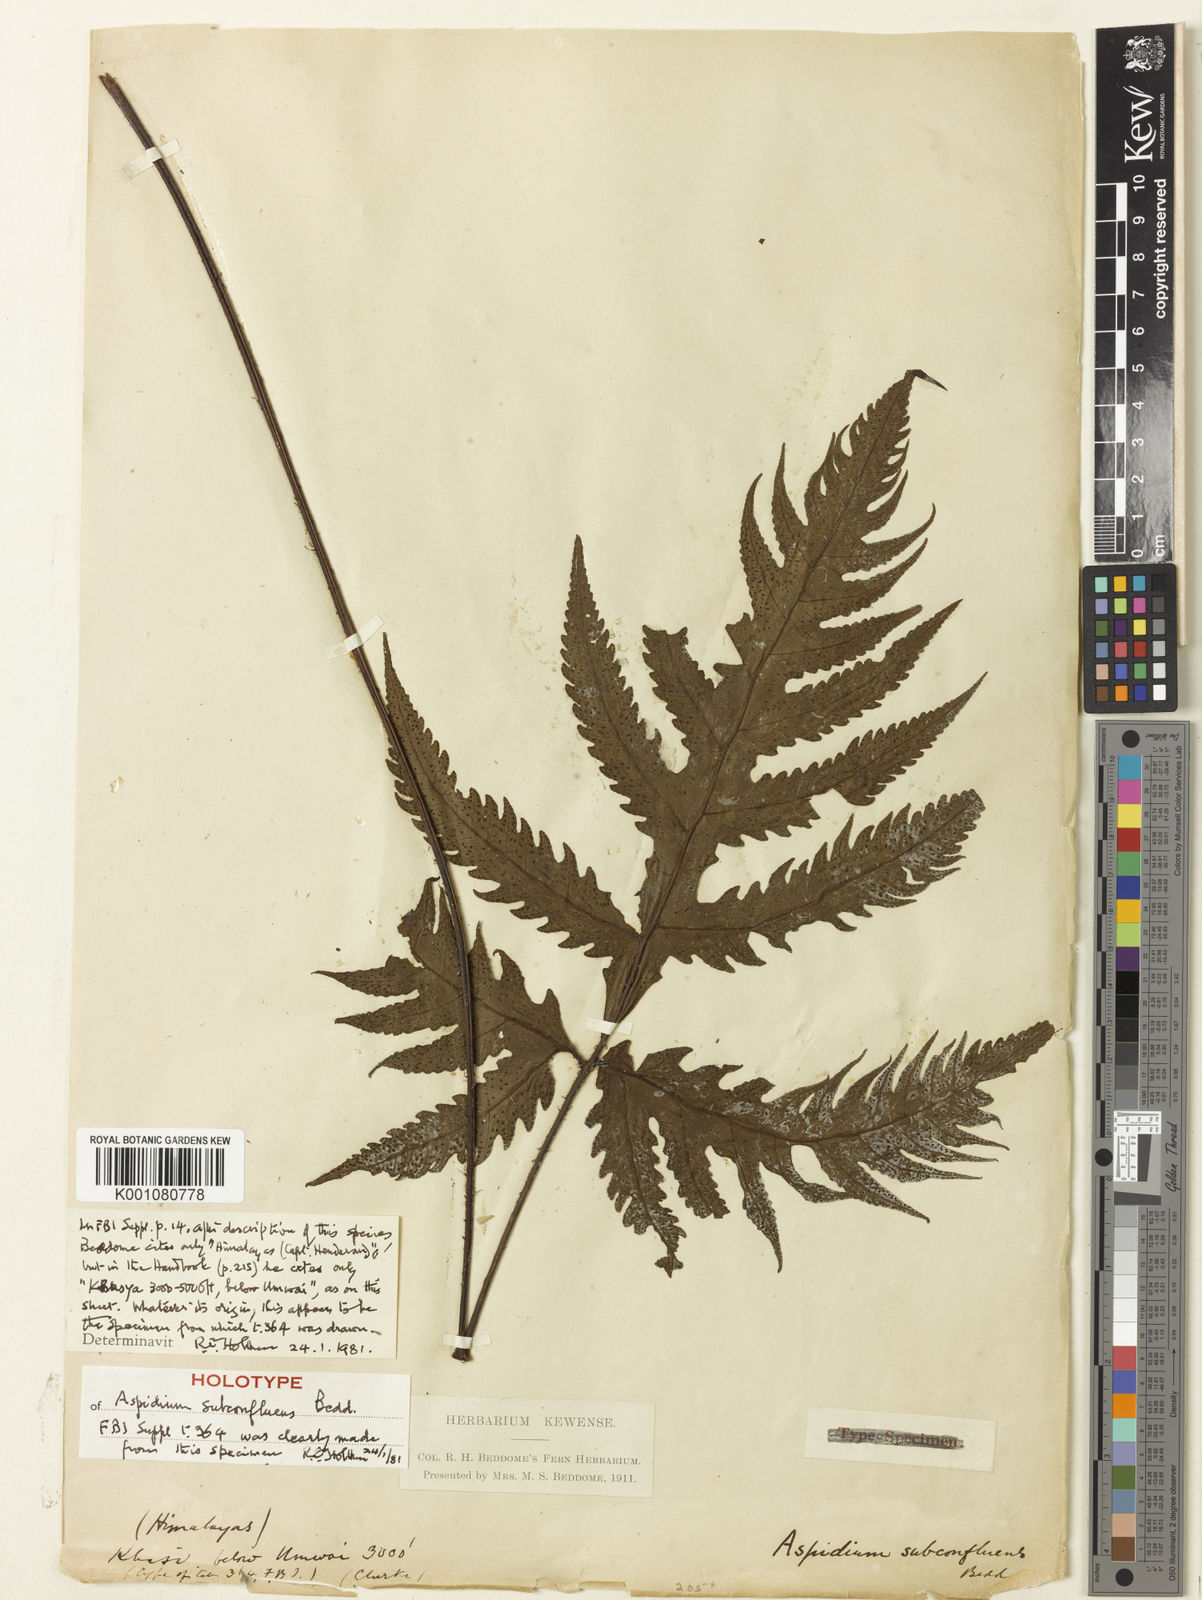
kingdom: Plantae
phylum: Tracheophyta
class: Polypodiopsida
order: Polypodiales
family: Tectariaceae
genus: Tectaria
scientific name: Tectaria subconfluens
